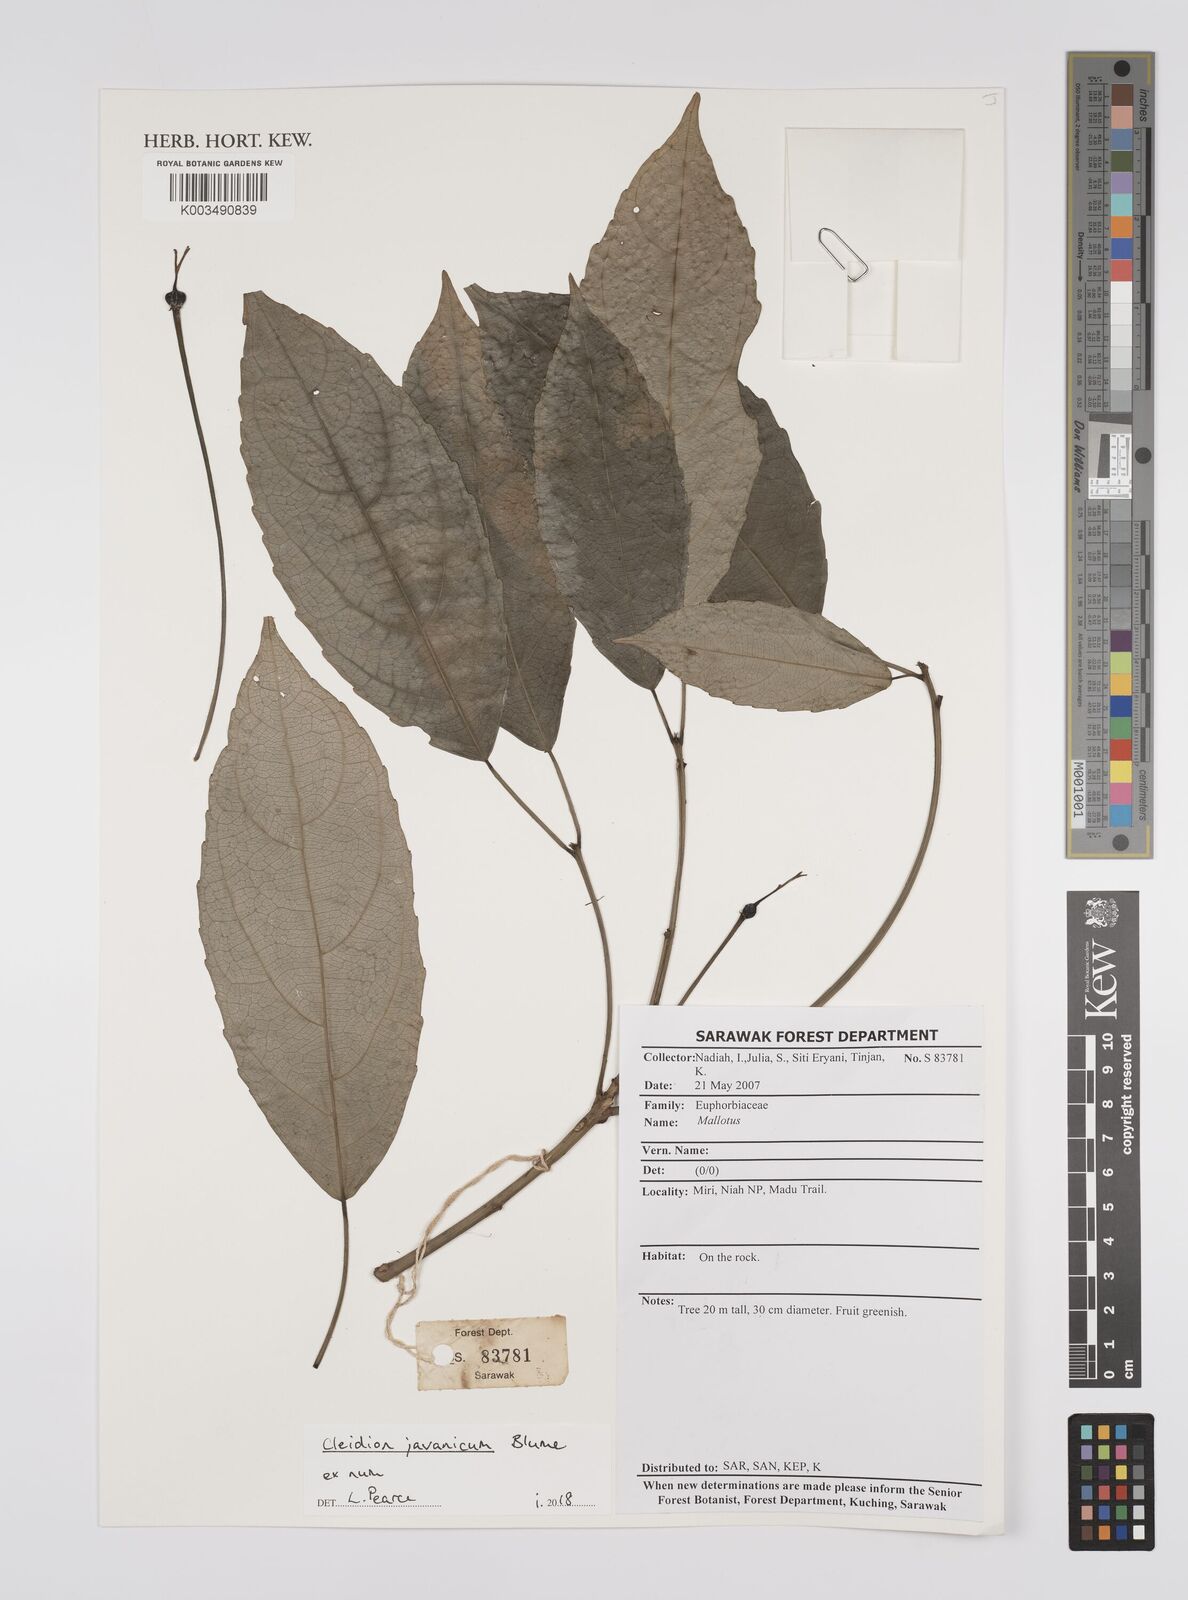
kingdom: Plantae
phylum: Tracheophyta
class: Magnoliopsida
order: Malpighiales
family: Euphorbiaceae
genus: Cleidion
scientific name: Cleidion javanicum
